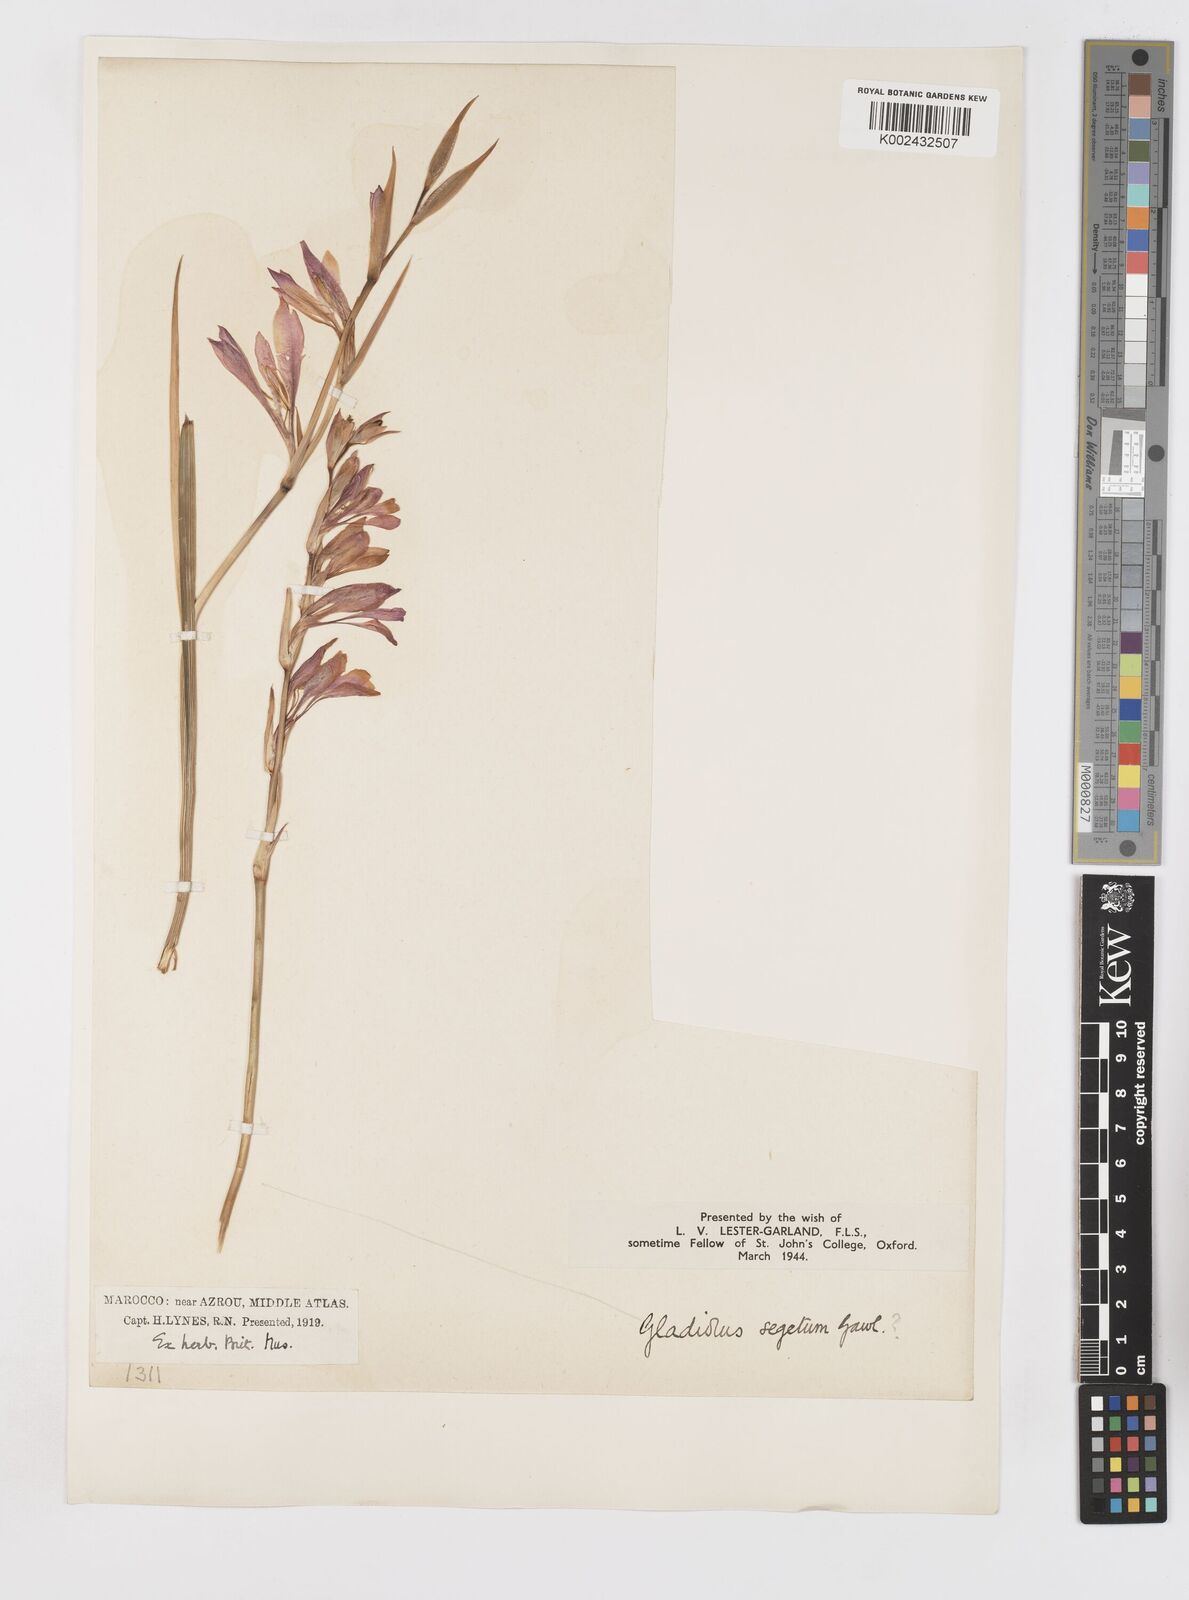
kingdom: Plantae
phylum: Tracheophyta
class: Liliopsida
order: Asparagales
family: Iridaceae
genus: Gladiolus
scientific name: Gladiolus italicus
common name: Field gladiolus
